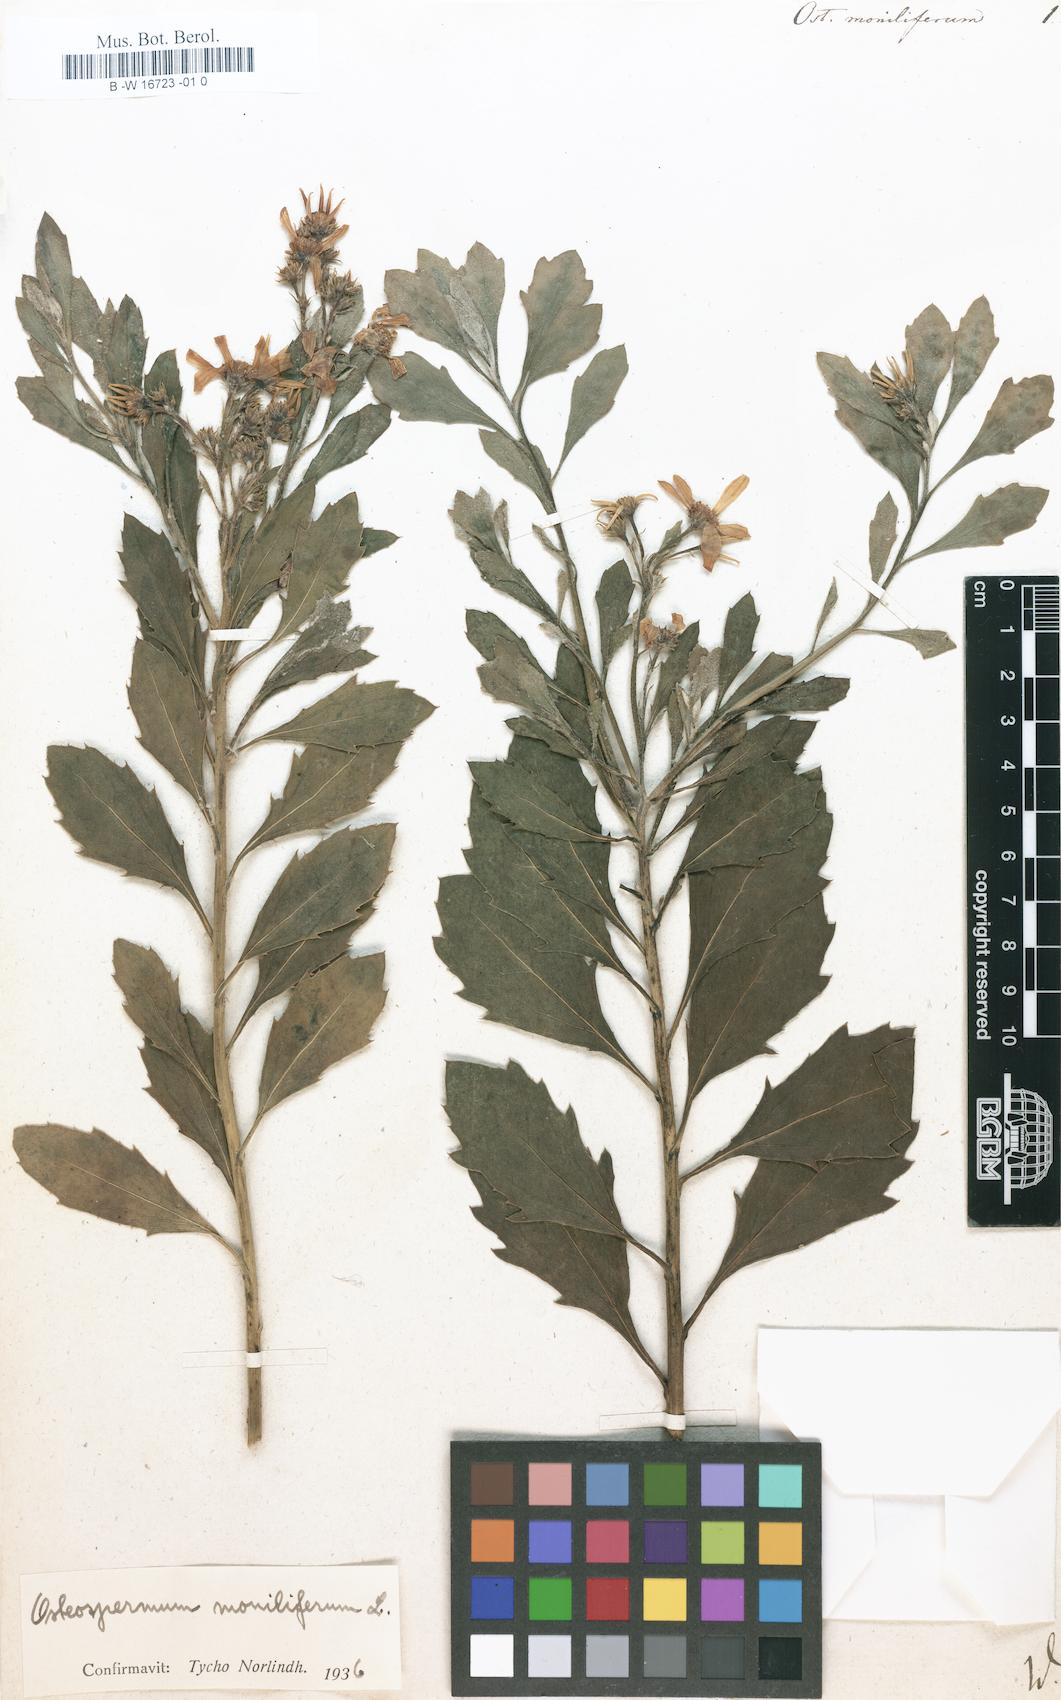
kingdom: Plantae
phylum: Tracheophyta
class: Magnoliopsida
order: Asterales
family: Asteraceae
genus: Osteospermum
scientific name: Osteospermum moniliferum
